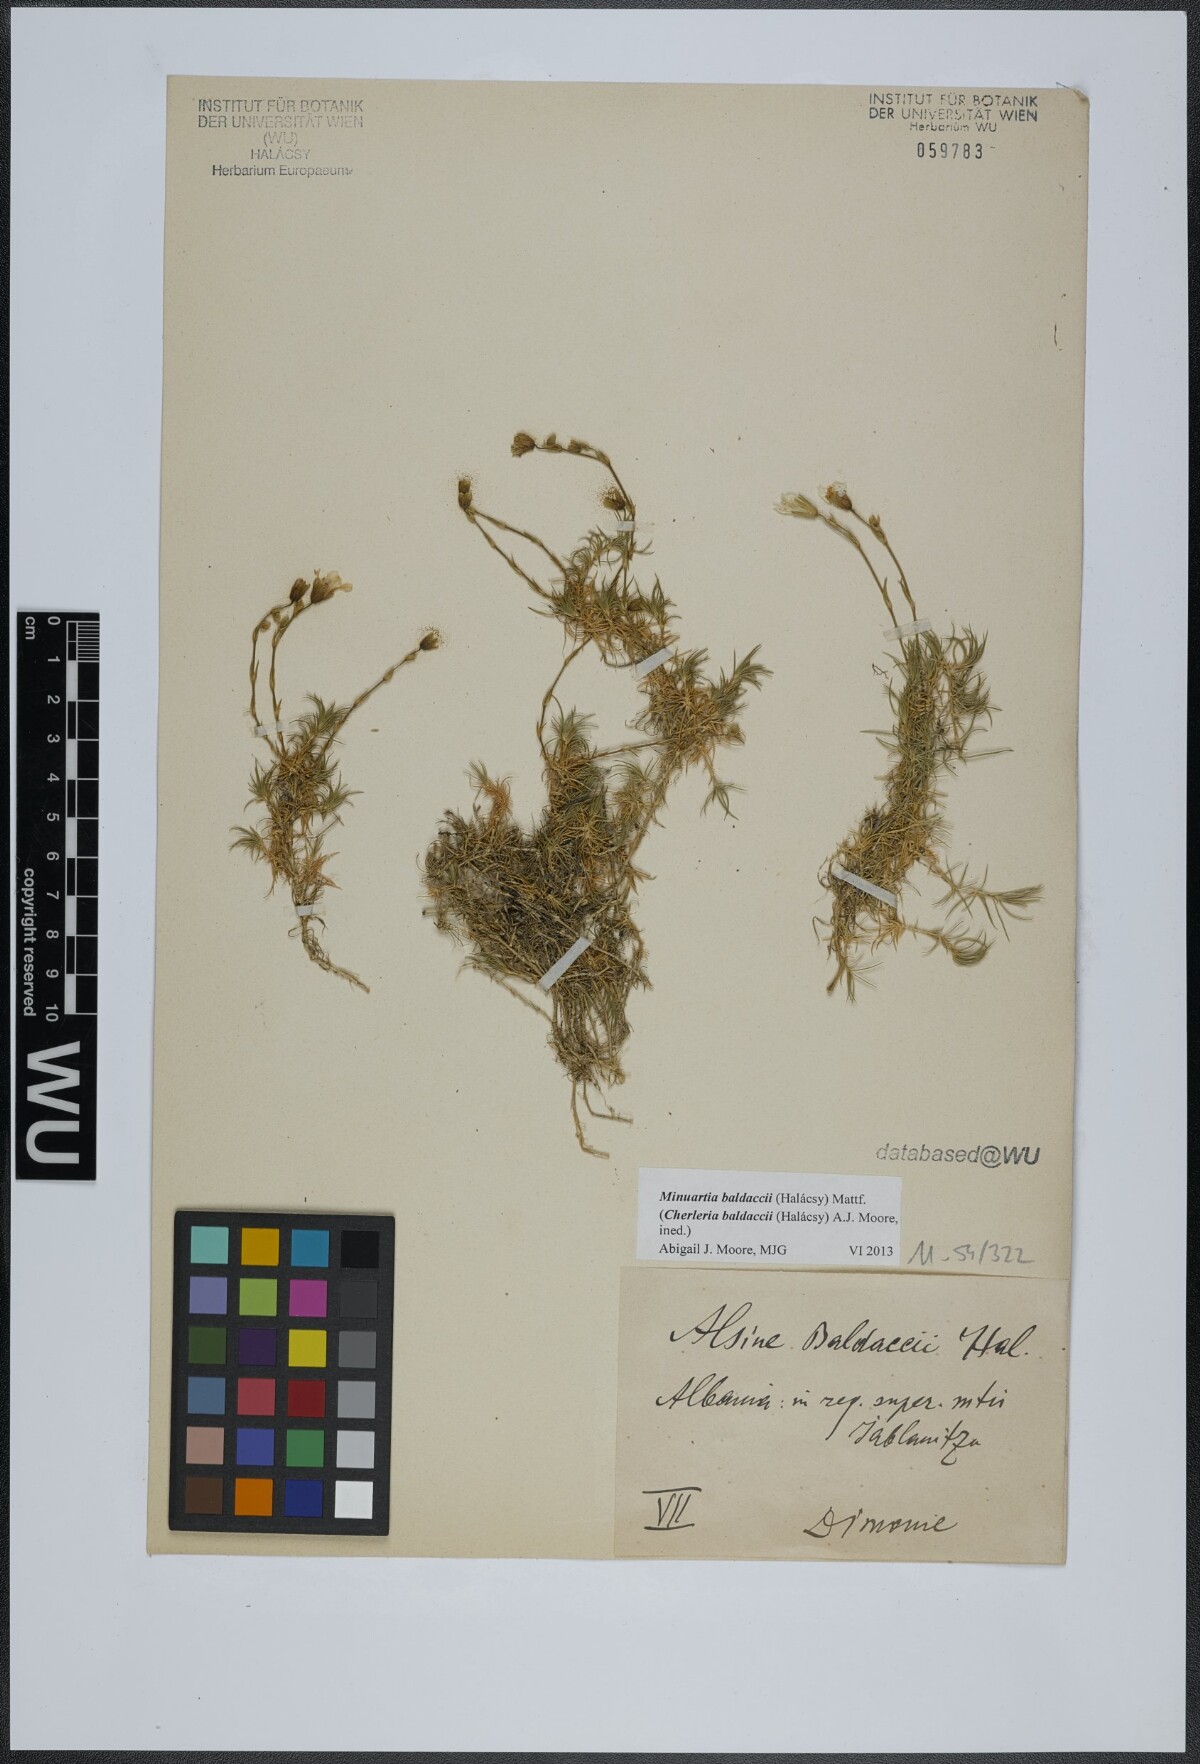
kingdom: Plantae
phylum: Tracheophyta
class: Magnoliopsida
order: Caryophyllales
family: Caryophyllaceae
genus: Cherleria
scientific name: Cherleria baldaccii
